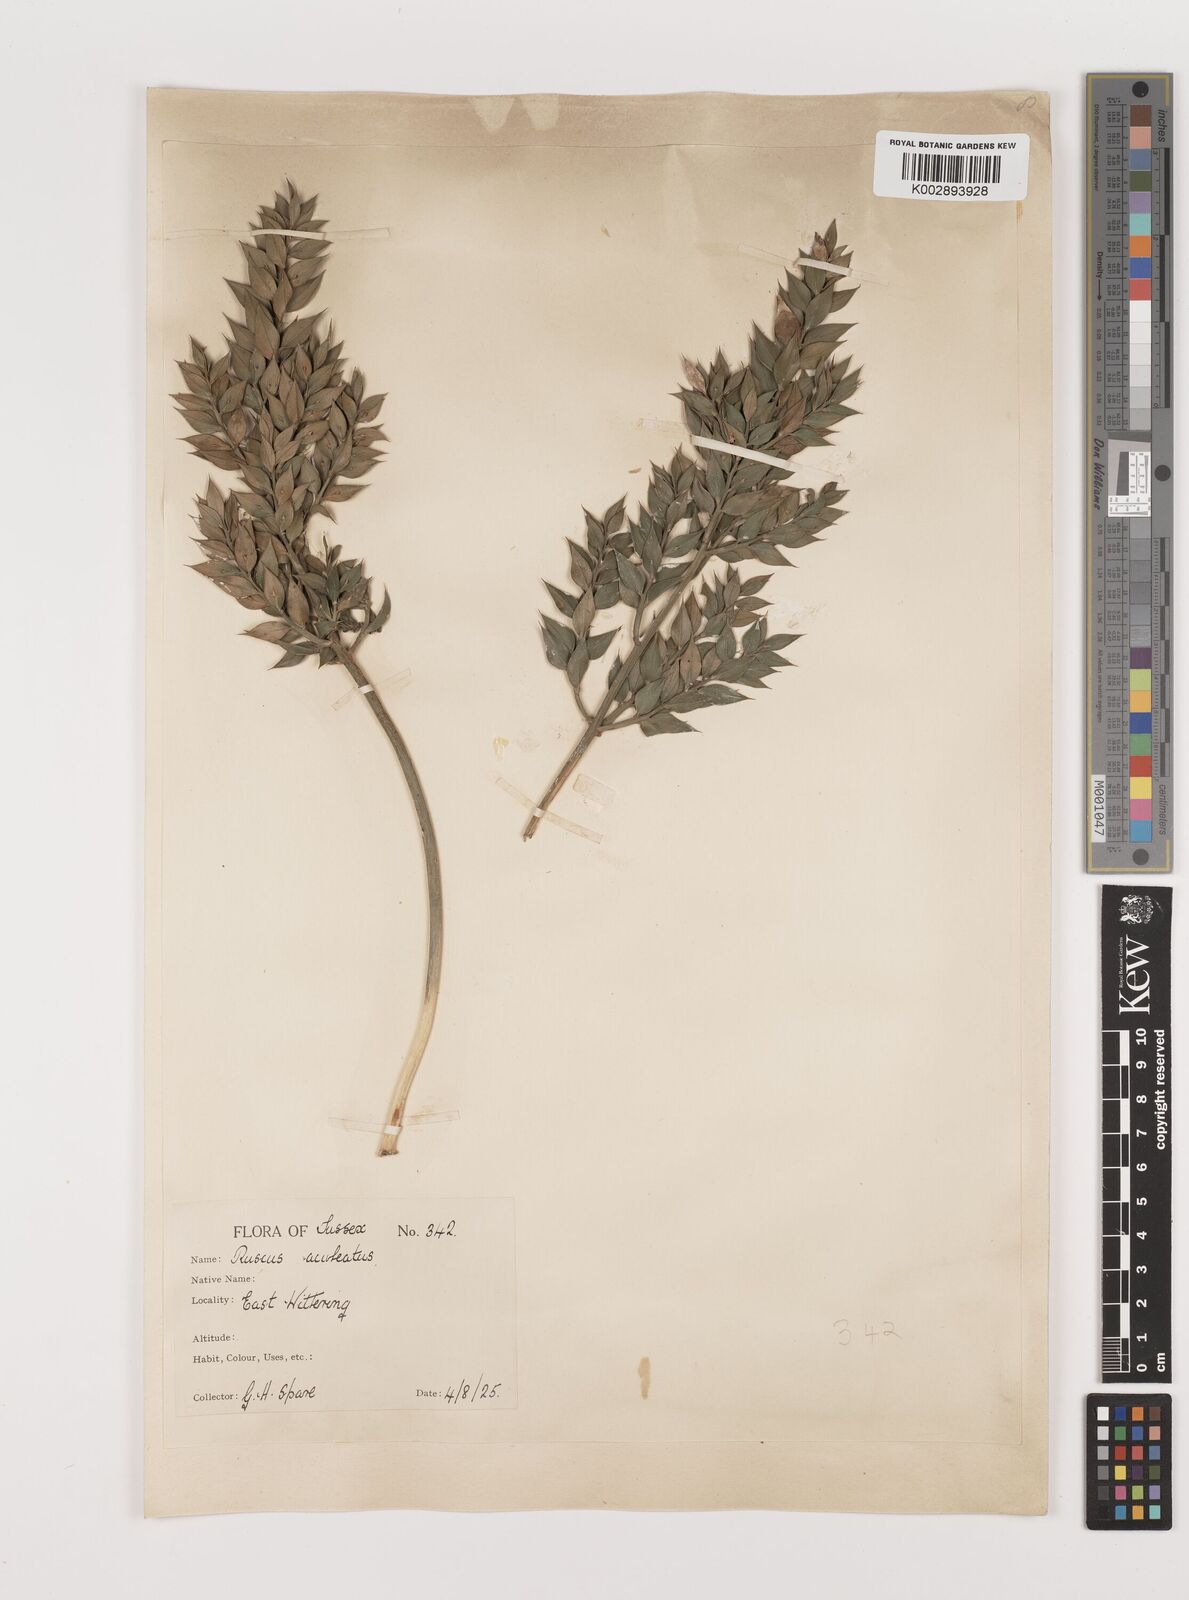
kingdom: Plantae
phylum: Tracheophyta
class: Liliopsida
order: Asparagales
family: Asparagaceae
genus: Ruscus
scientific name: Ruscus aculeatus
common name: Butcher's-broom
